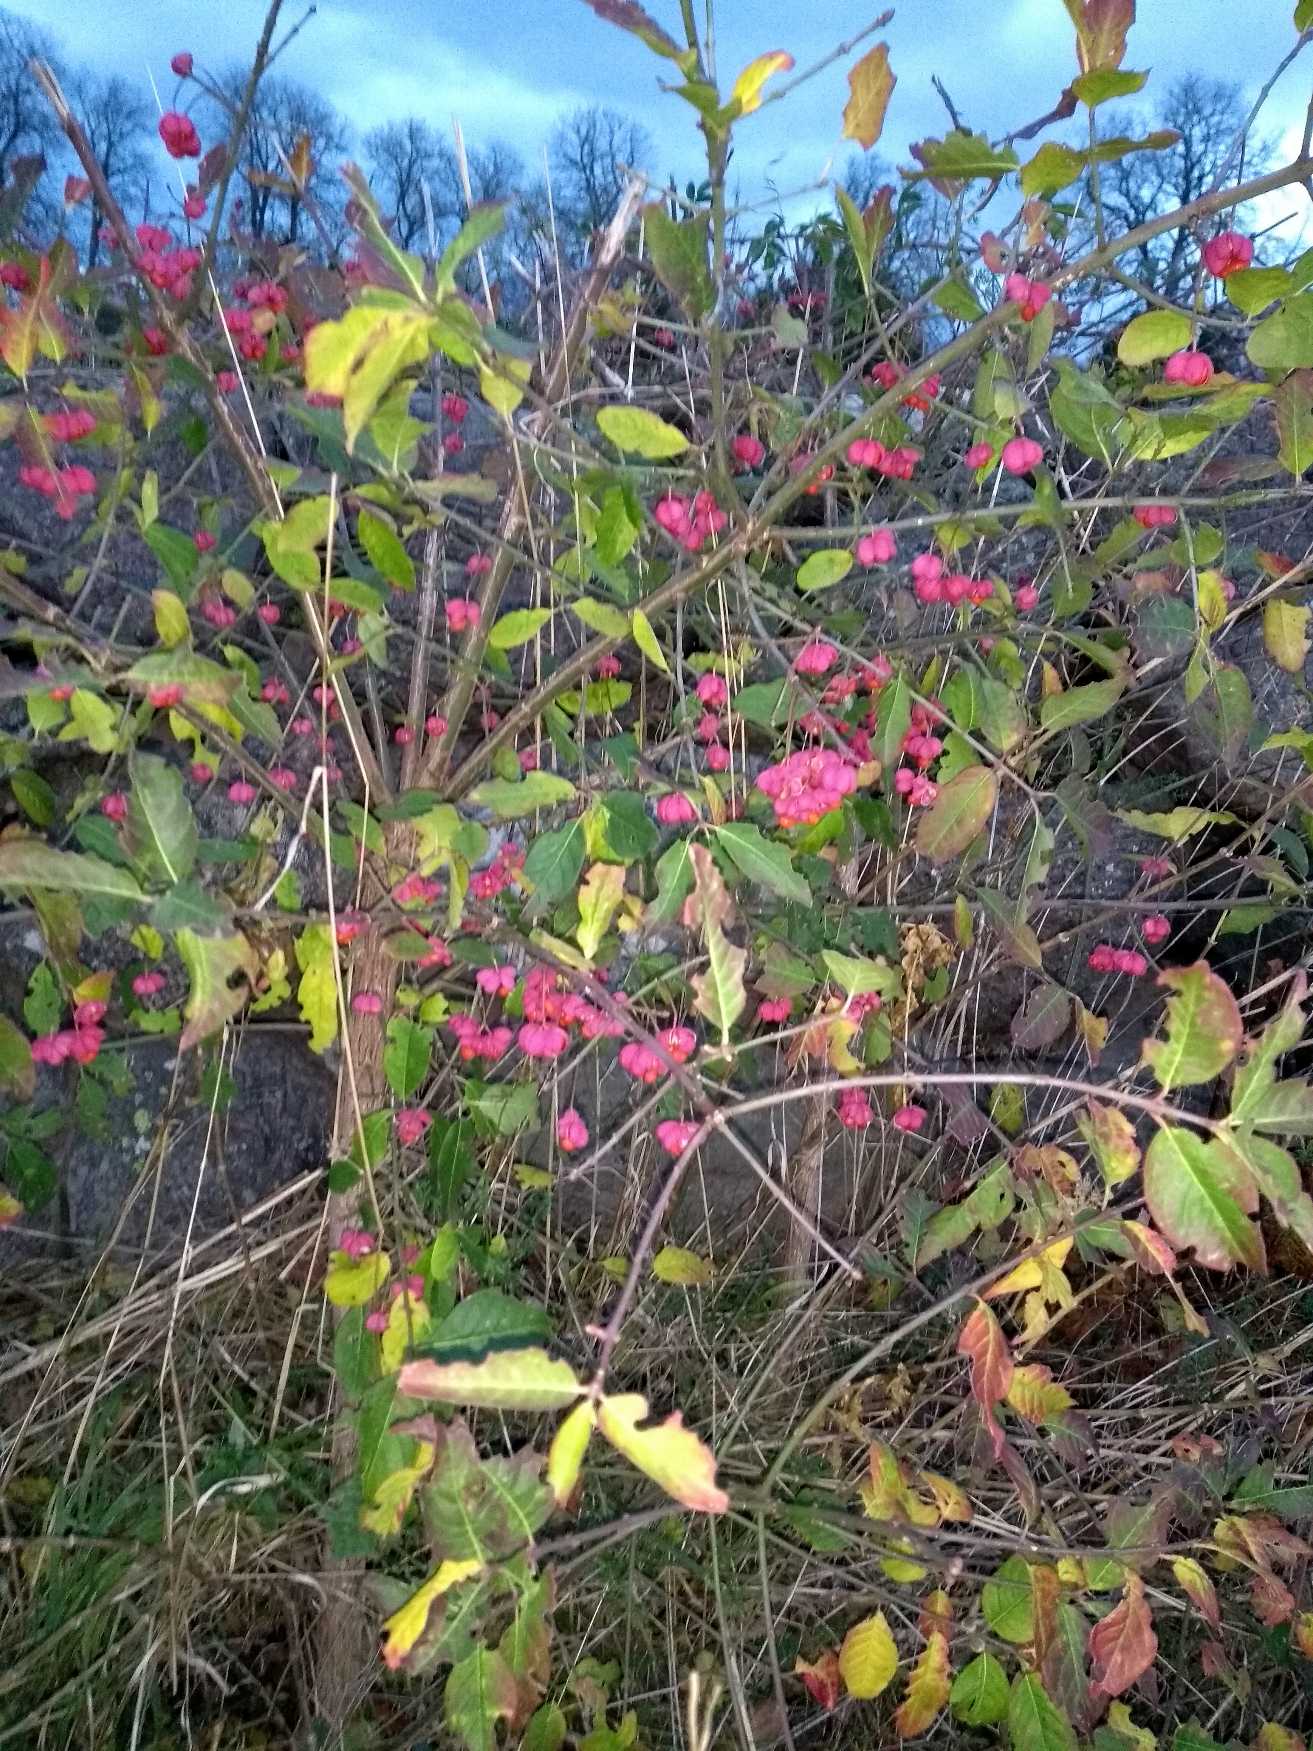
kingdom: Plantae
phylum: Tracheophyta
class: Magnoliopsida
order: Celastrales
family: Celastraceae
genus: Euonymus
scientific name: Euonymus europaeus
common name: Benved
